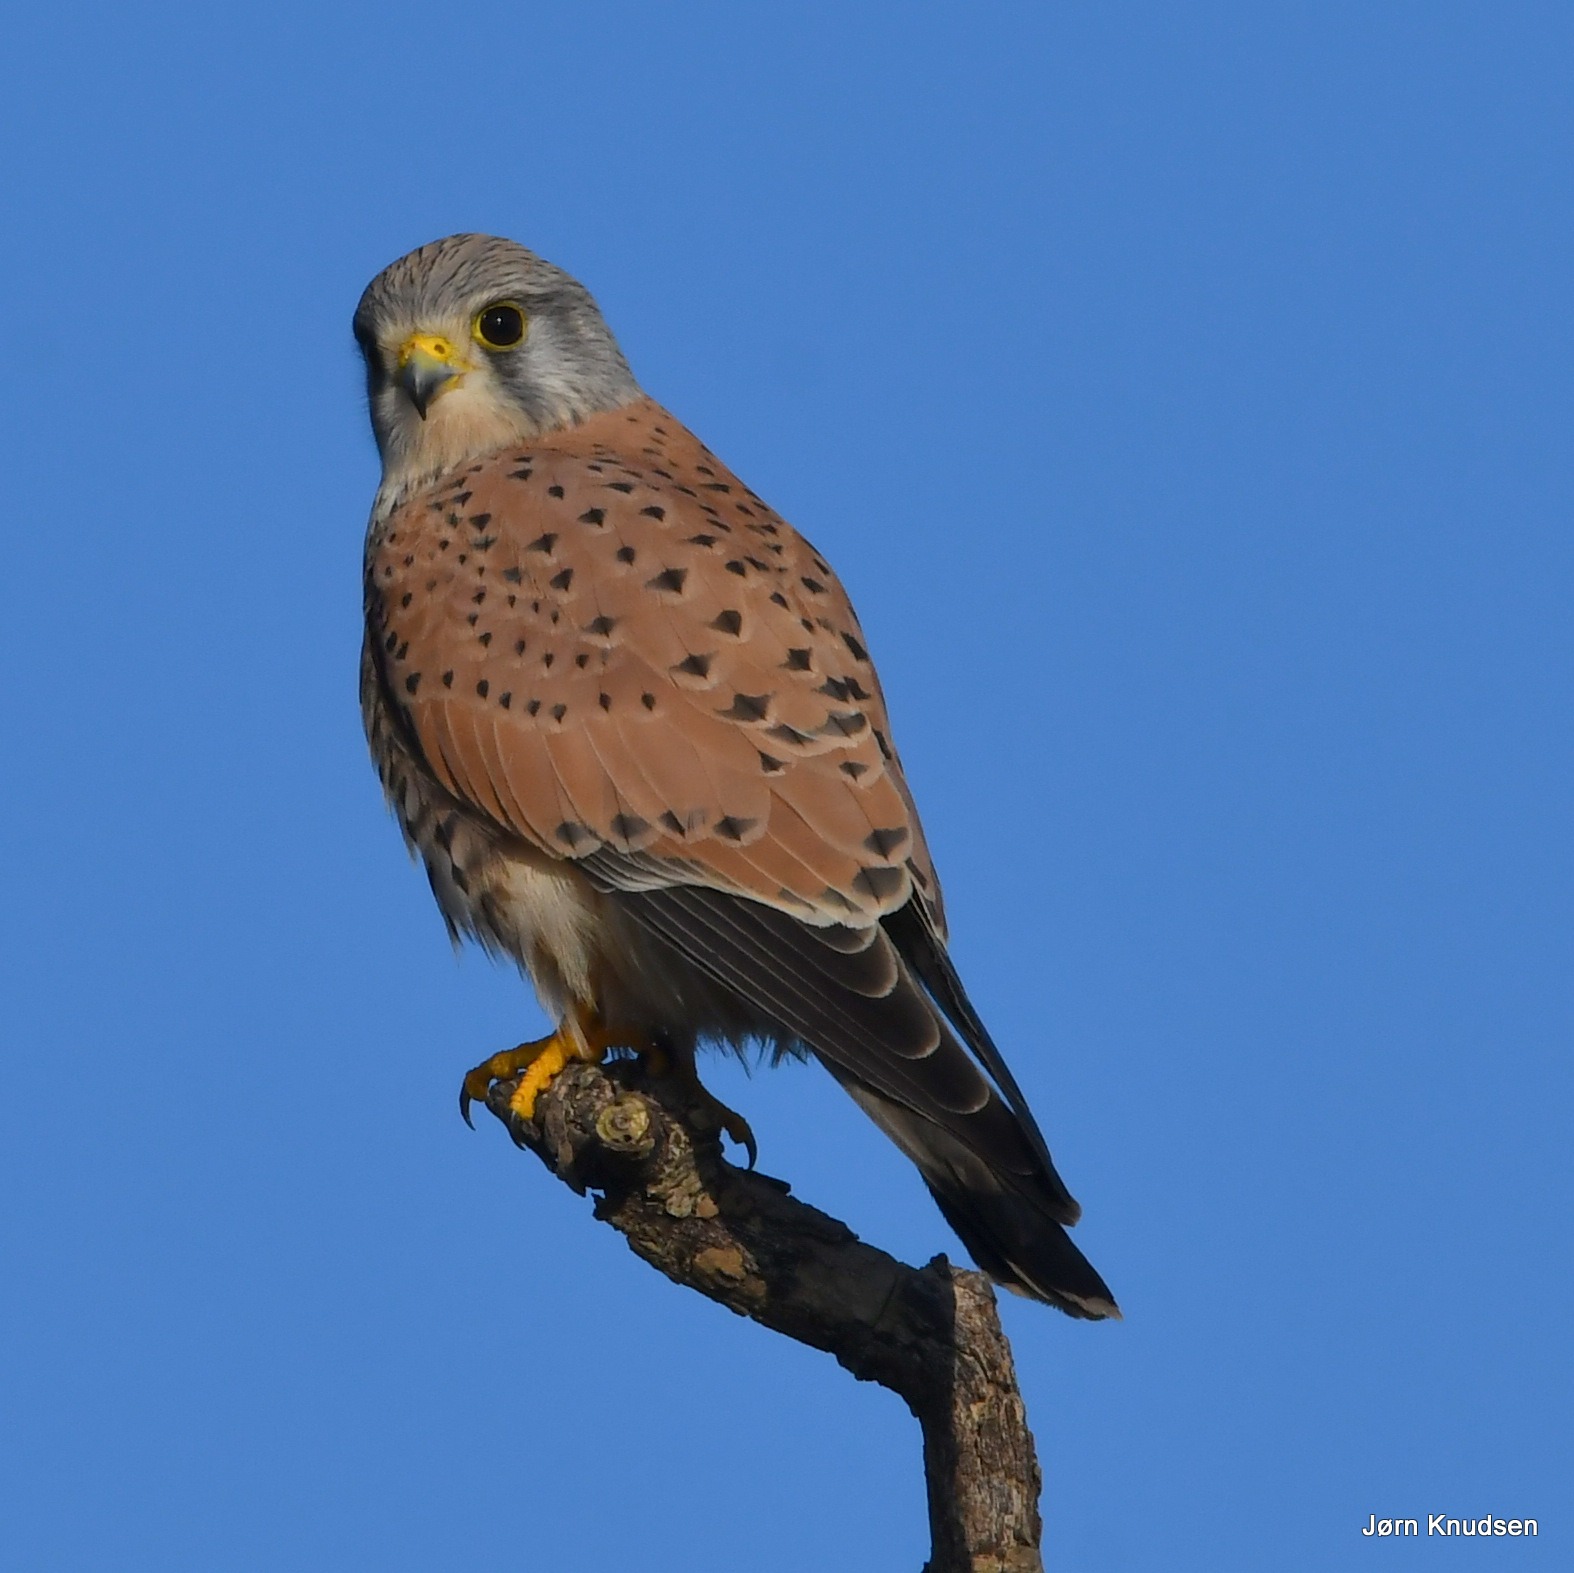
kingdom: Animalia
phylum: Chordata
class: Aves
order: Falconiformes
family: Falconidae
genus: Falco
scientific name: Falco tinnunculus
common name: Tårnfalk
